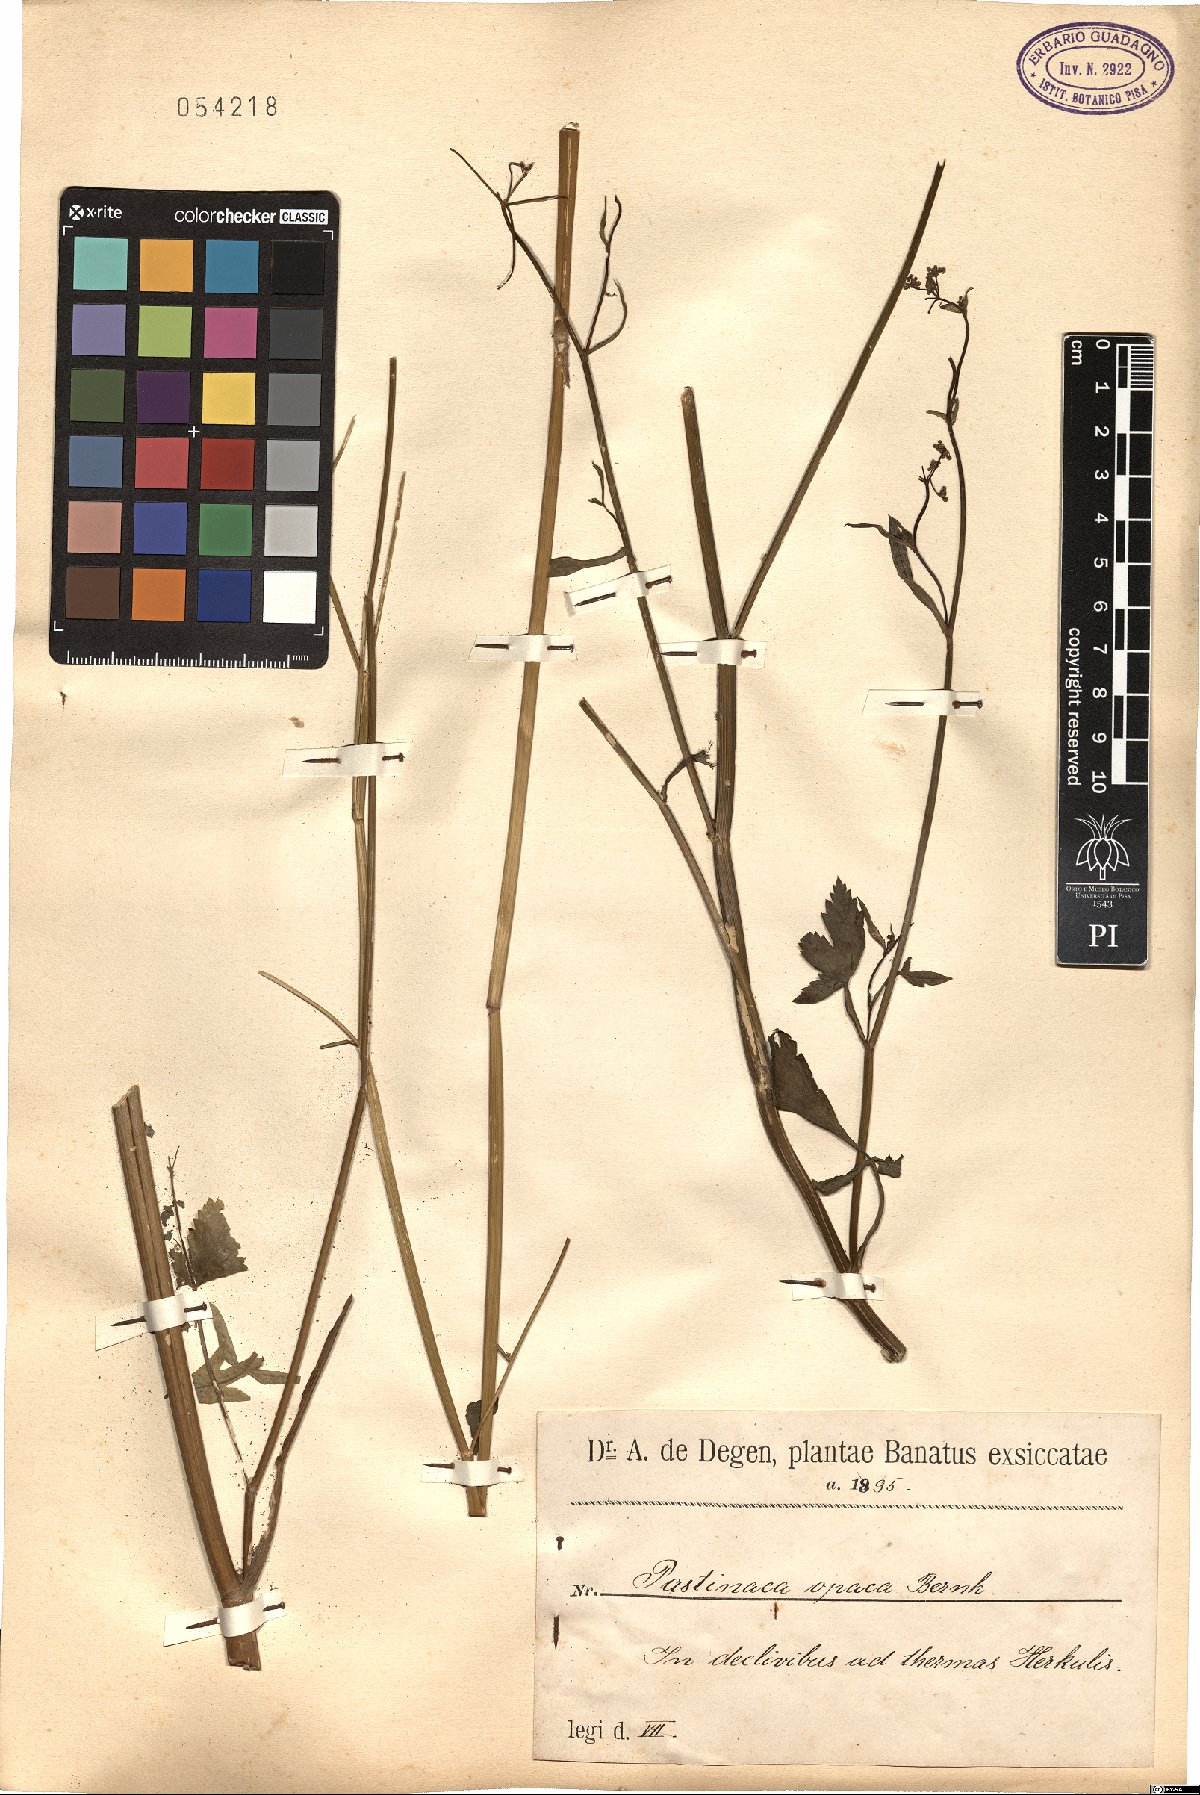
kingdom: Plantae
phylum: Tracheophyta
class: Magnoliopsida
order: Apiales
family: Apiaceae
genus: Pastinaca
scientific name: Pastinaca sativa
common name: Wild parsnip
